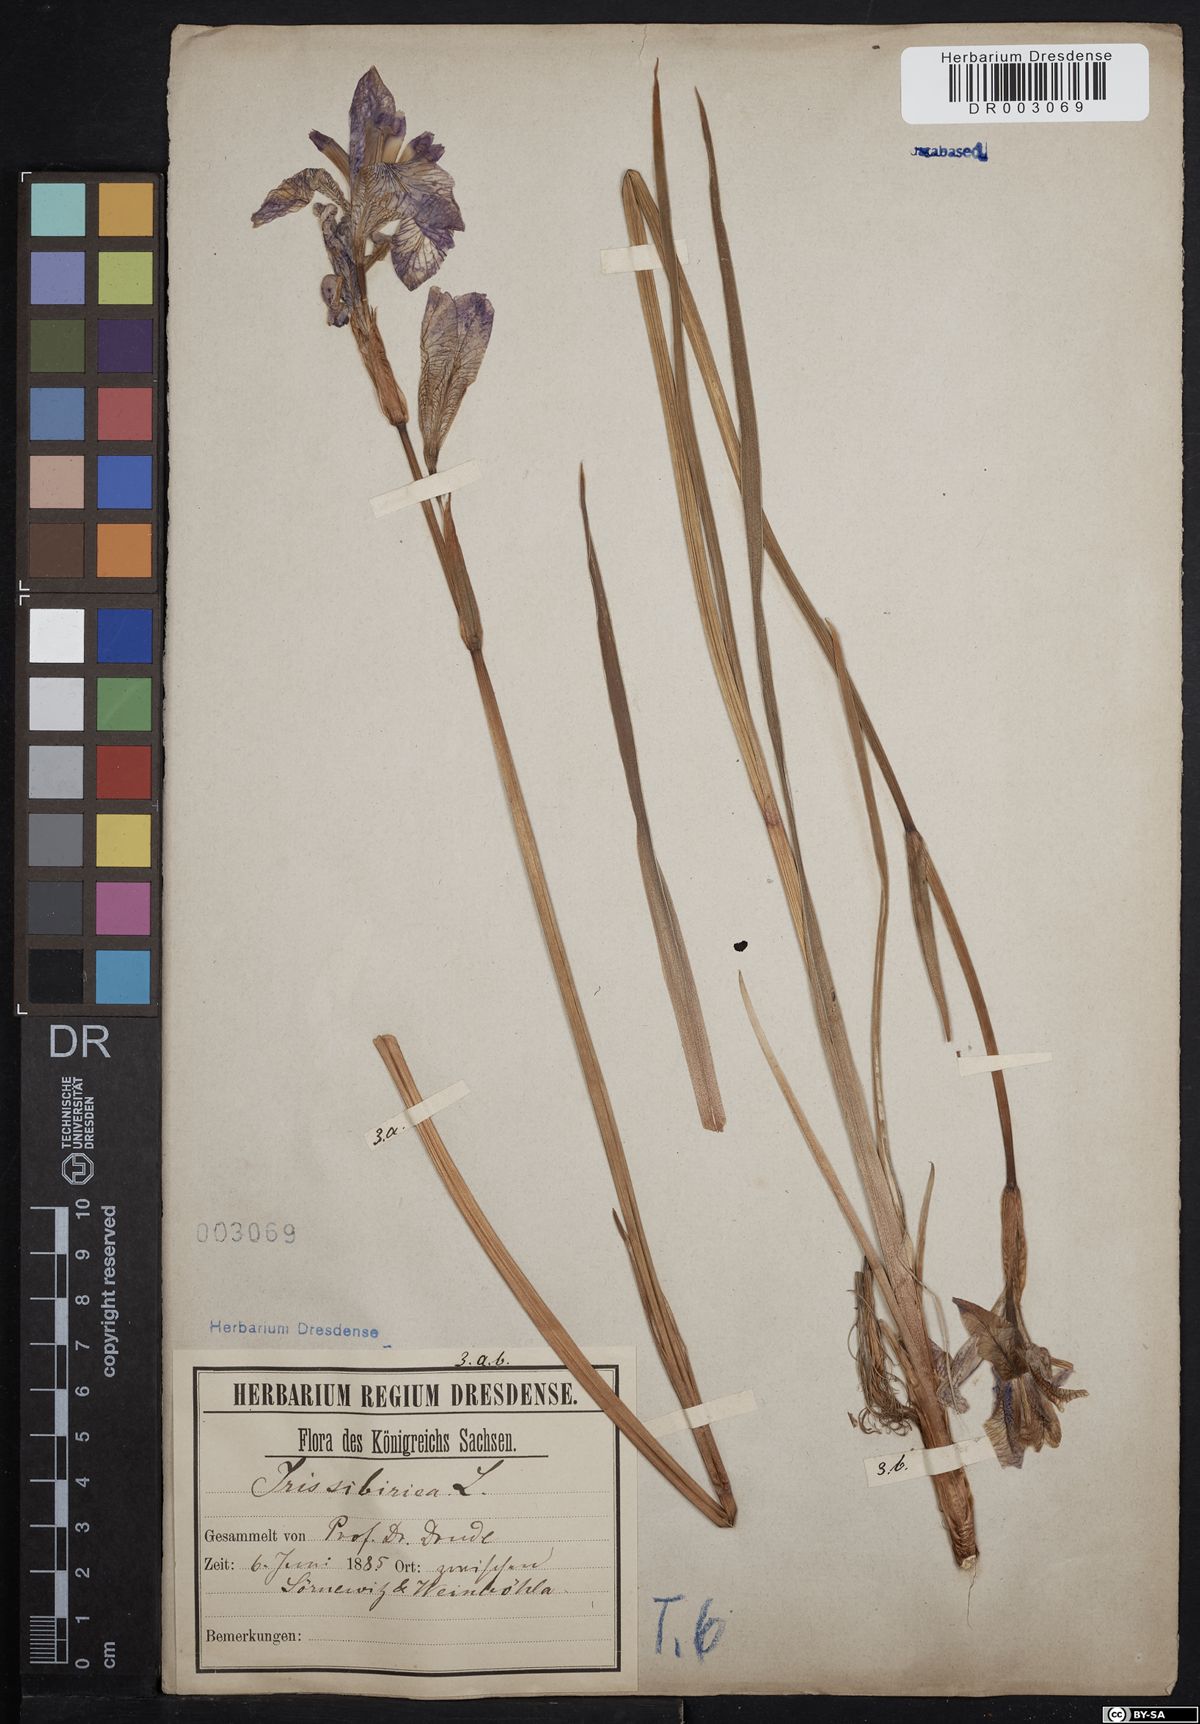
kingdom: Plantae
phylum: Tracheophyta
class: Liliopsida
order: Asparagales
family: Iridaceae
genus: Iris
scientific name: Iris sibirica
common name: Siberian iris
